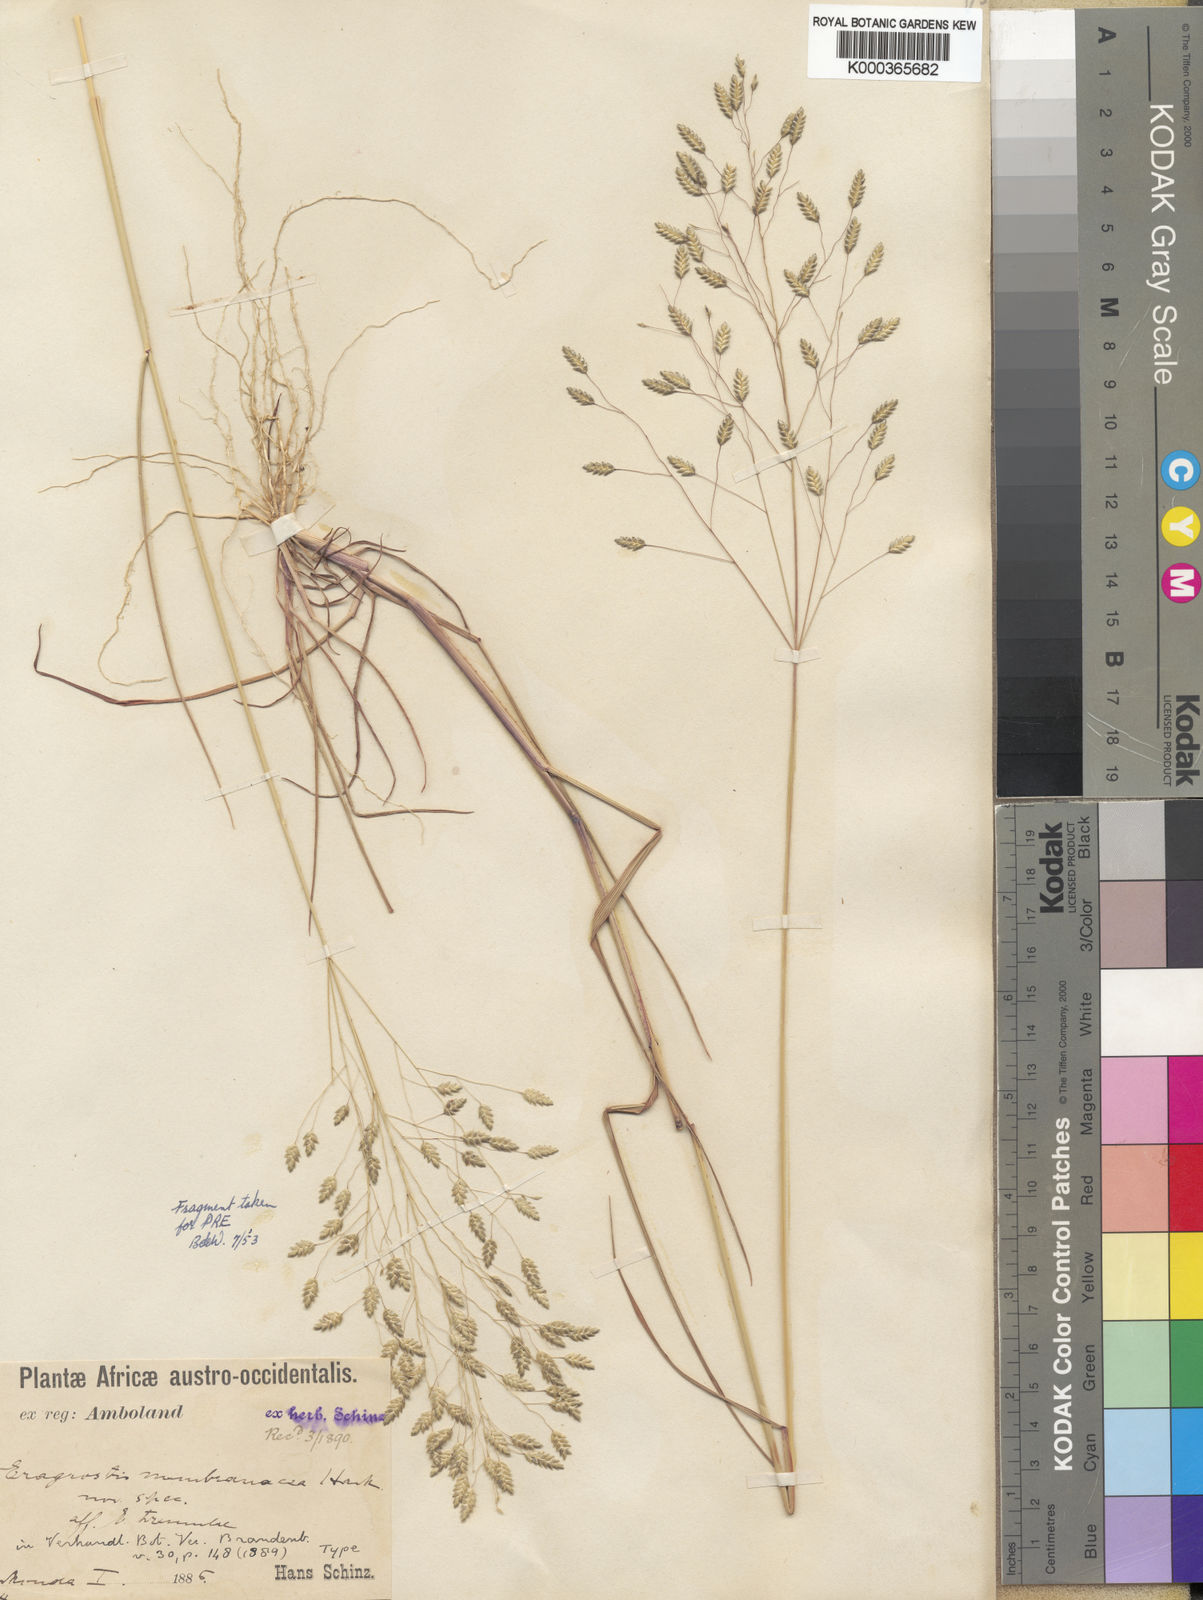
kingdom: Plantae
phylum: Tracheophyta
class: Liliopsida
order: Poales
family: Poaceae
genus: Eragrostis
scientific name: Eragrostis
